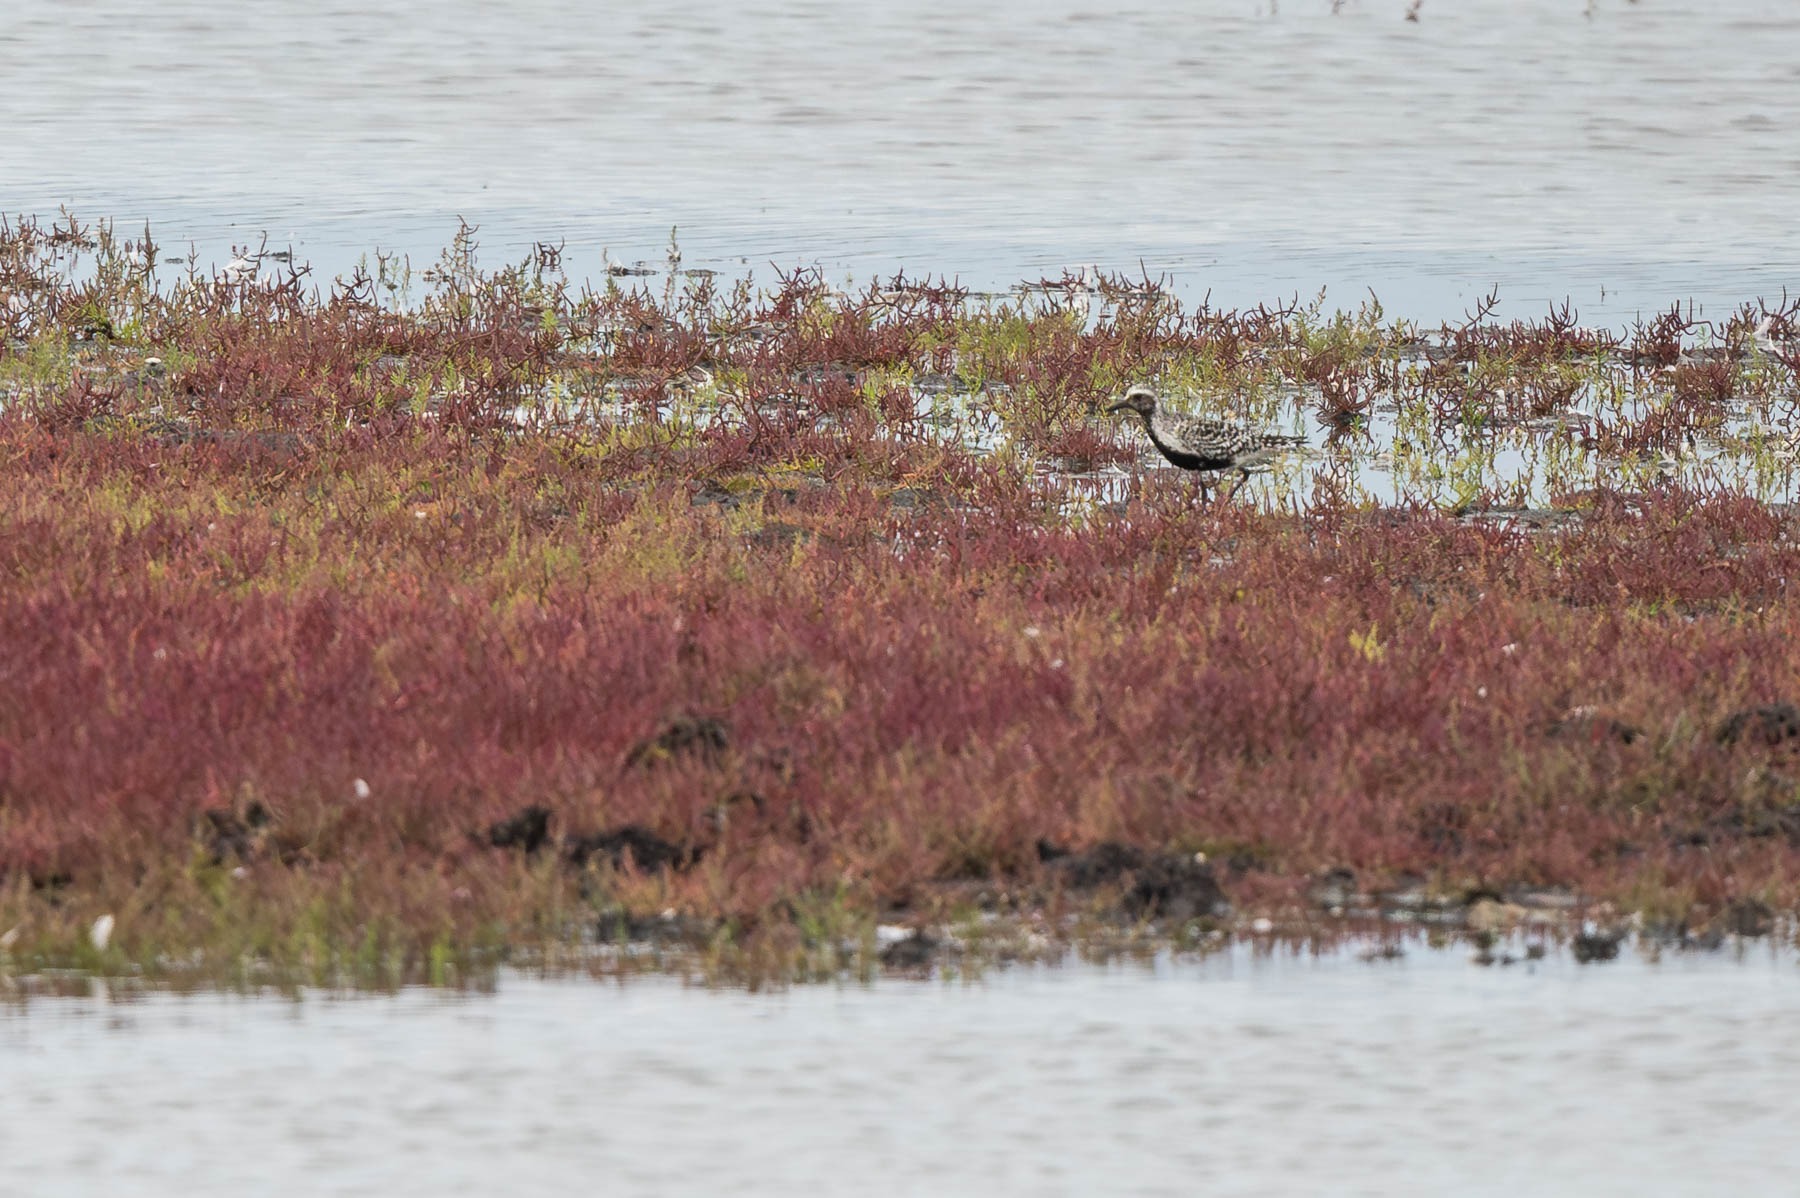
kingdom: Animalia
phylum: Chordata
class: Aves
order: Charadriiformes
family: Charadriidae
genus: Pluvialis
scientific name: Pluvialis squatarola
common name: Strandhjejle
